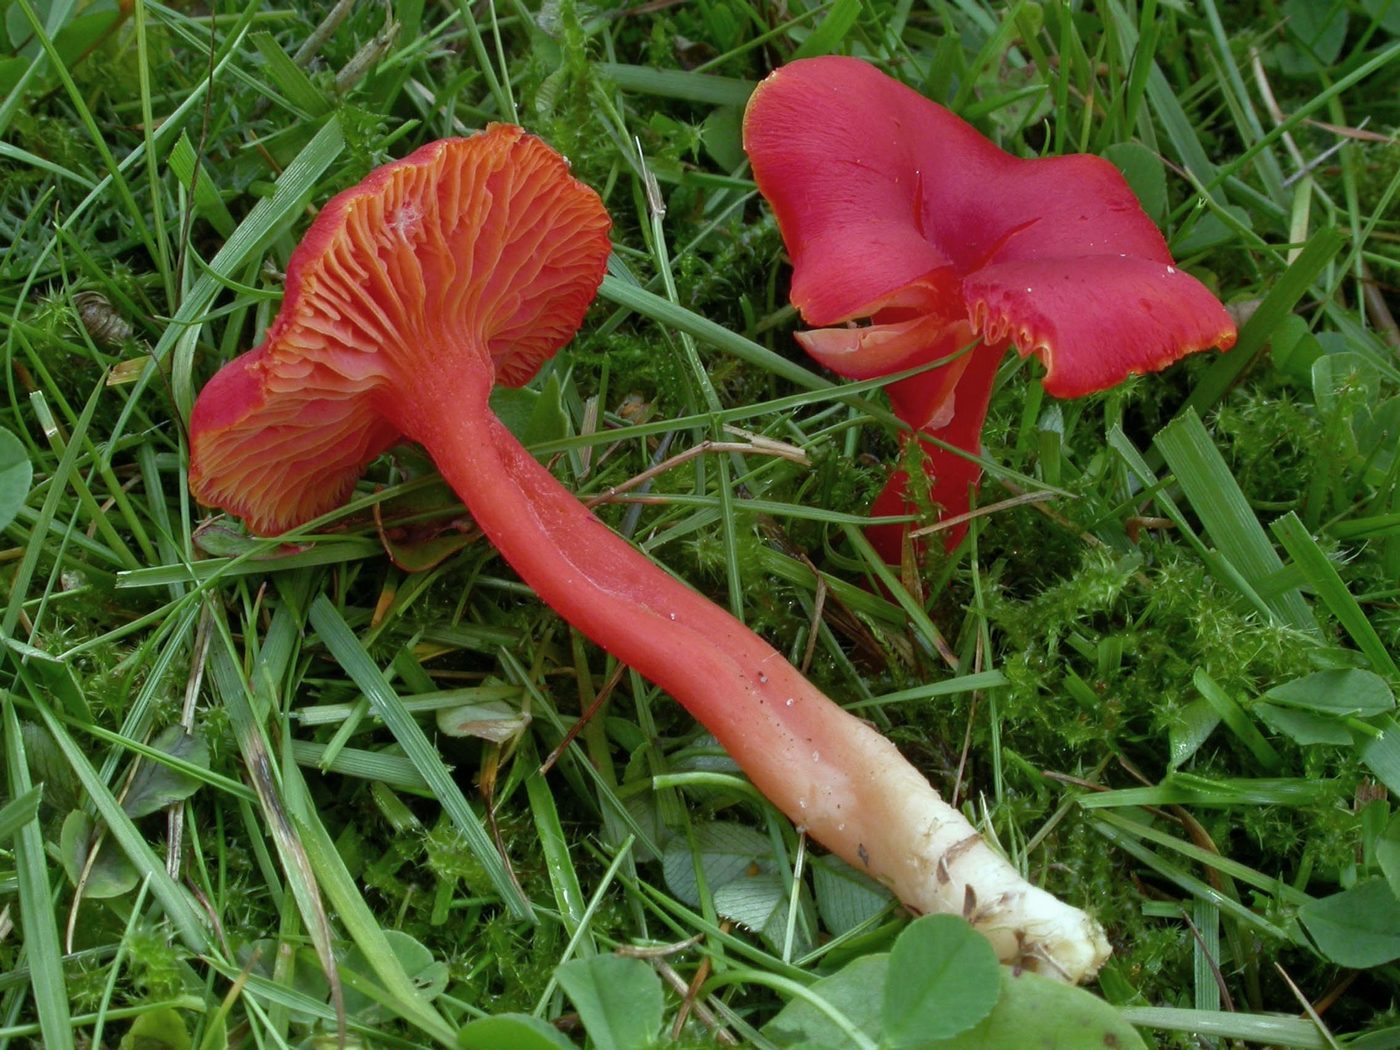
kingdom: Fungi
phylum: Basidiomycota
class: Agaricomycetes
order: Agaricales
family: Hygrophoraceae
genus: Hygrocybe
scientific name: Hygrocybe miniata
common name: mønje-vokshat
